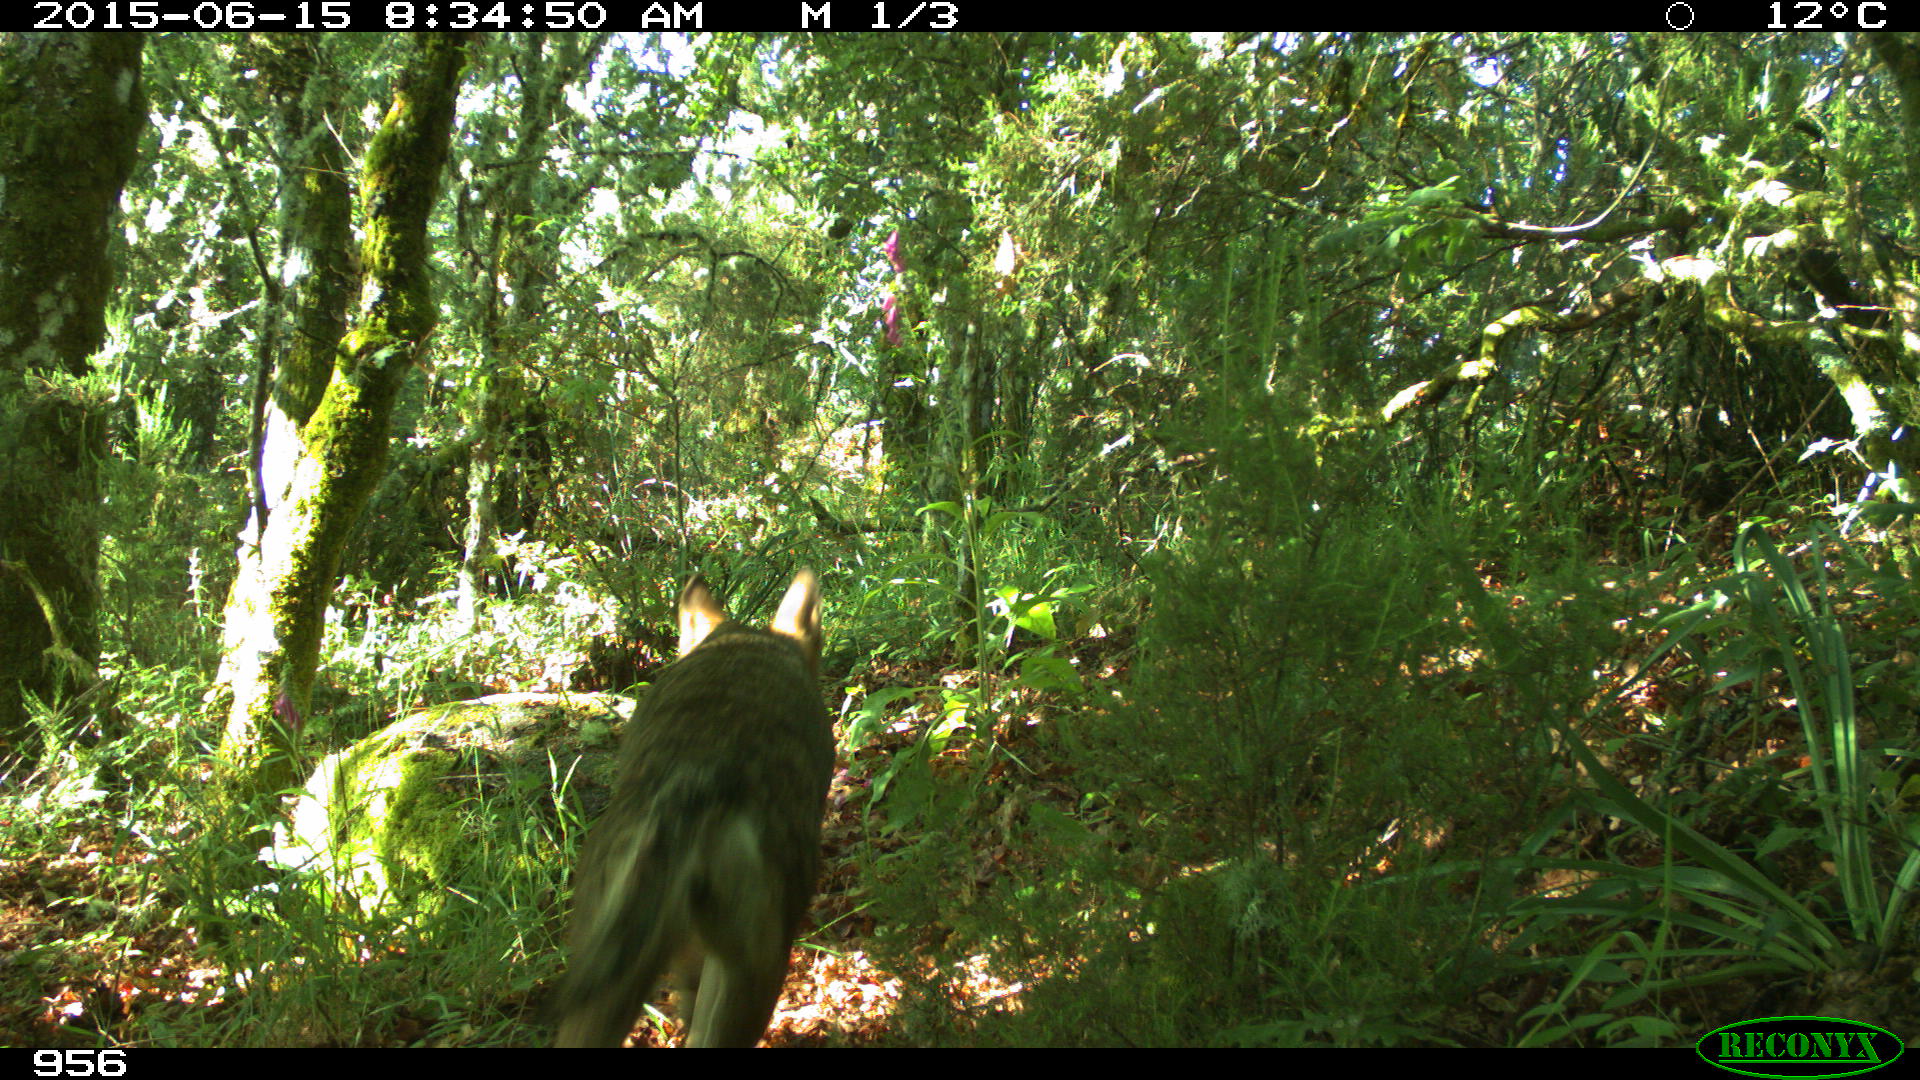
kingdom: Animalia
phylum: Chordata
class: Mammalia
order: Carnivora
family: Canidae
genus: Canis
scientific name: Canis lupus
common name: Gray wolf
